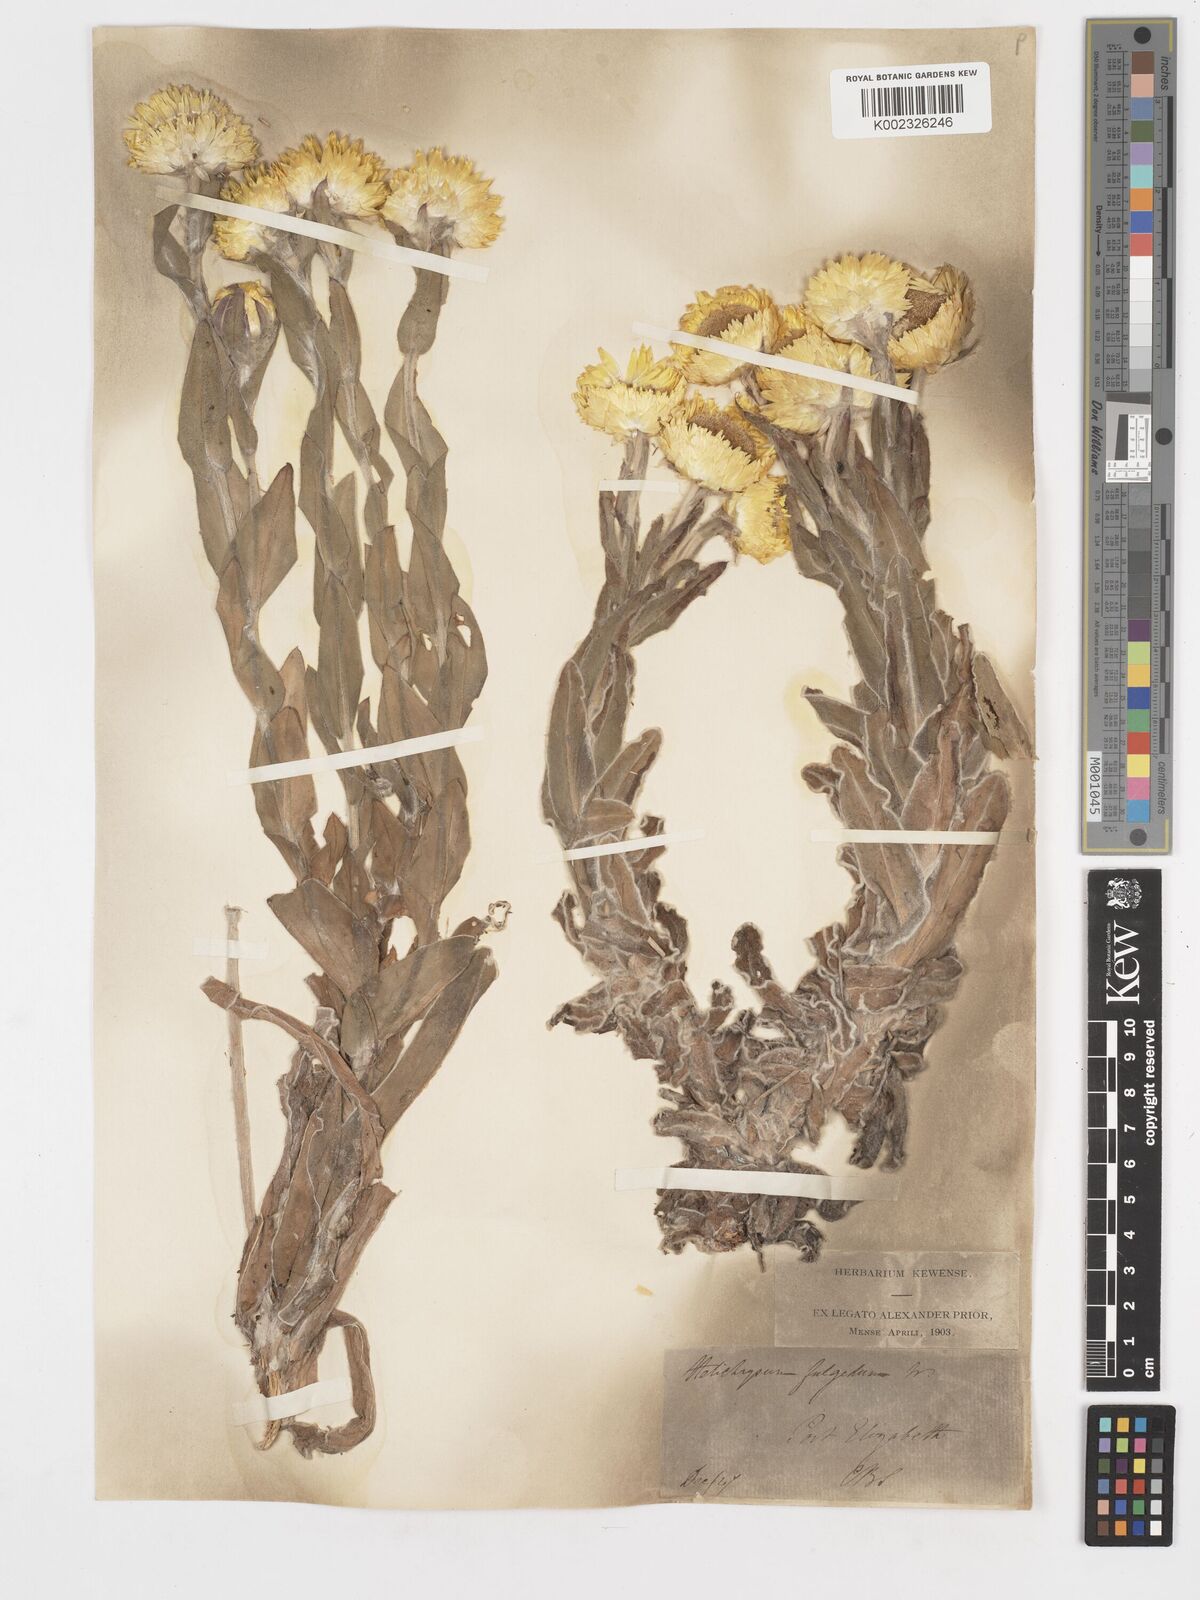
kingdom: Plantae
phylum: Tracheophyta
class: Magnoliopsida
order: Asterales
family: Asteraceae
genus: Helichrysum
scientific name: Helichrysum aureum
